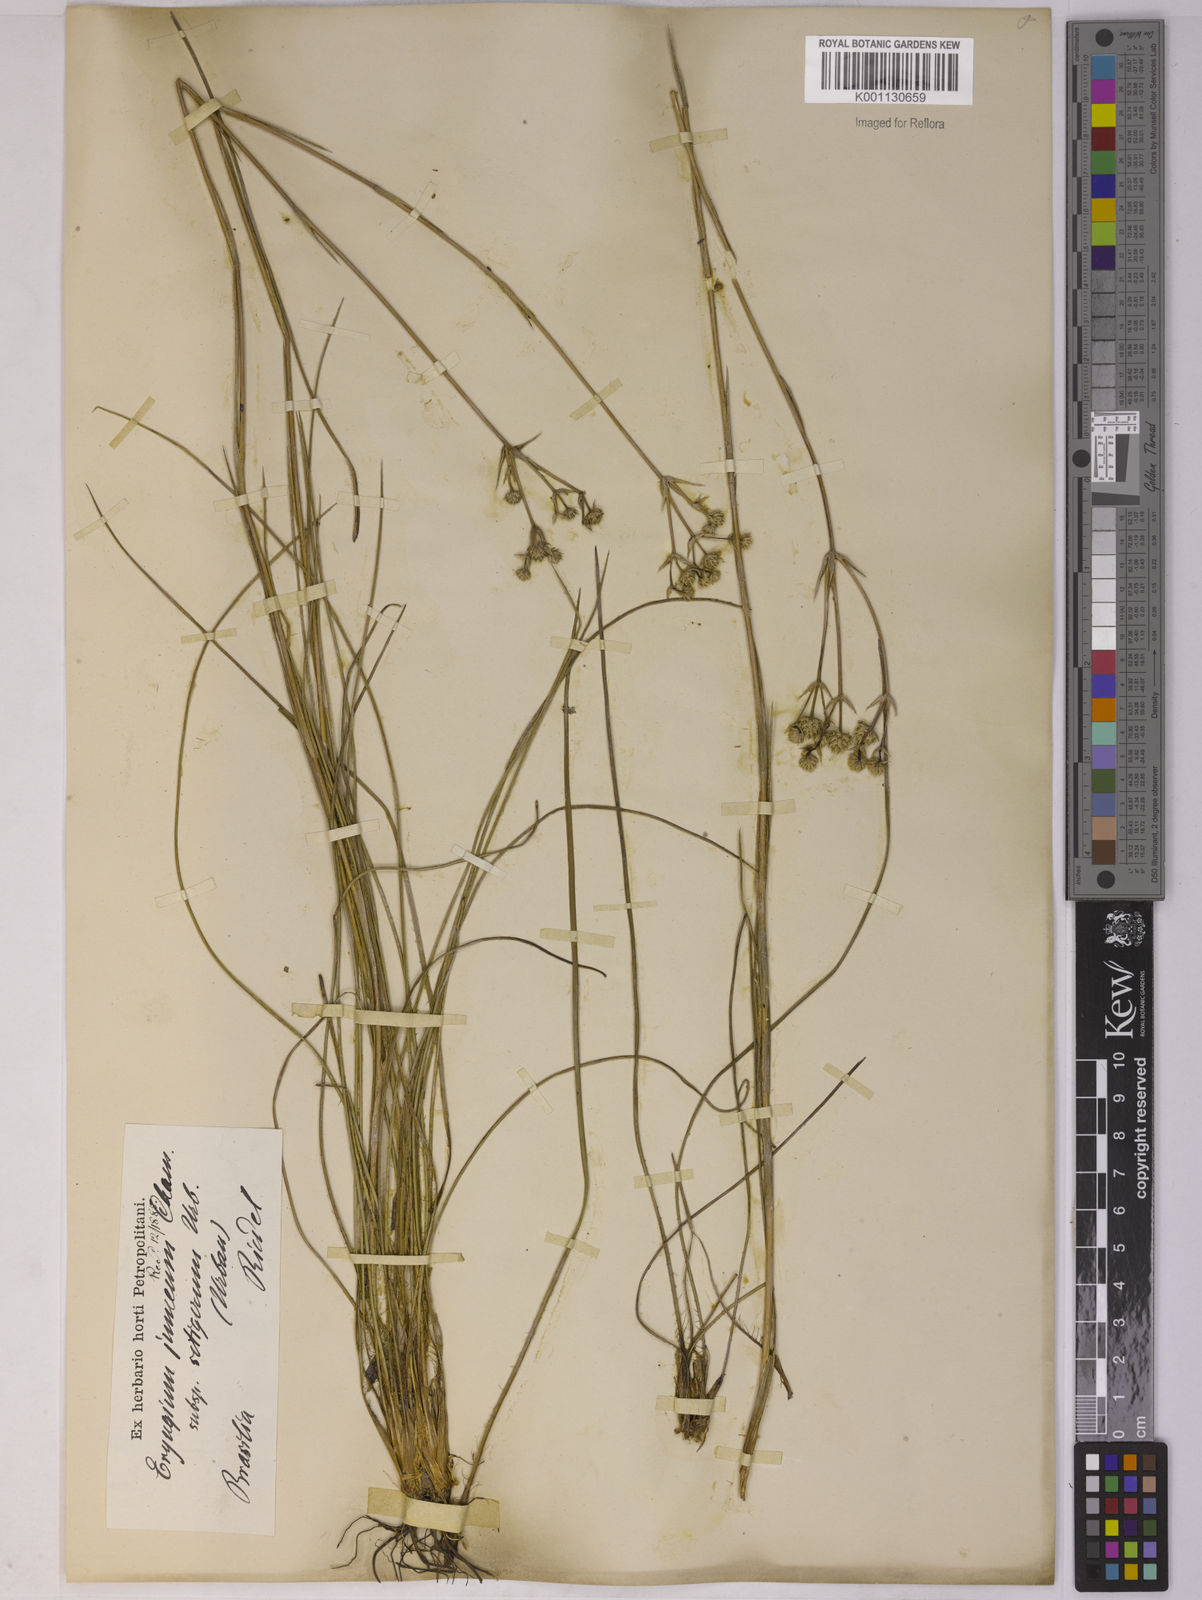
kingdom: Plantae
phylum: Tracheophyta
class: Magnoliopsida
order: Apiales
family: Apiaceae
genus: Eryngium
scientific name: Eryngium junceum
